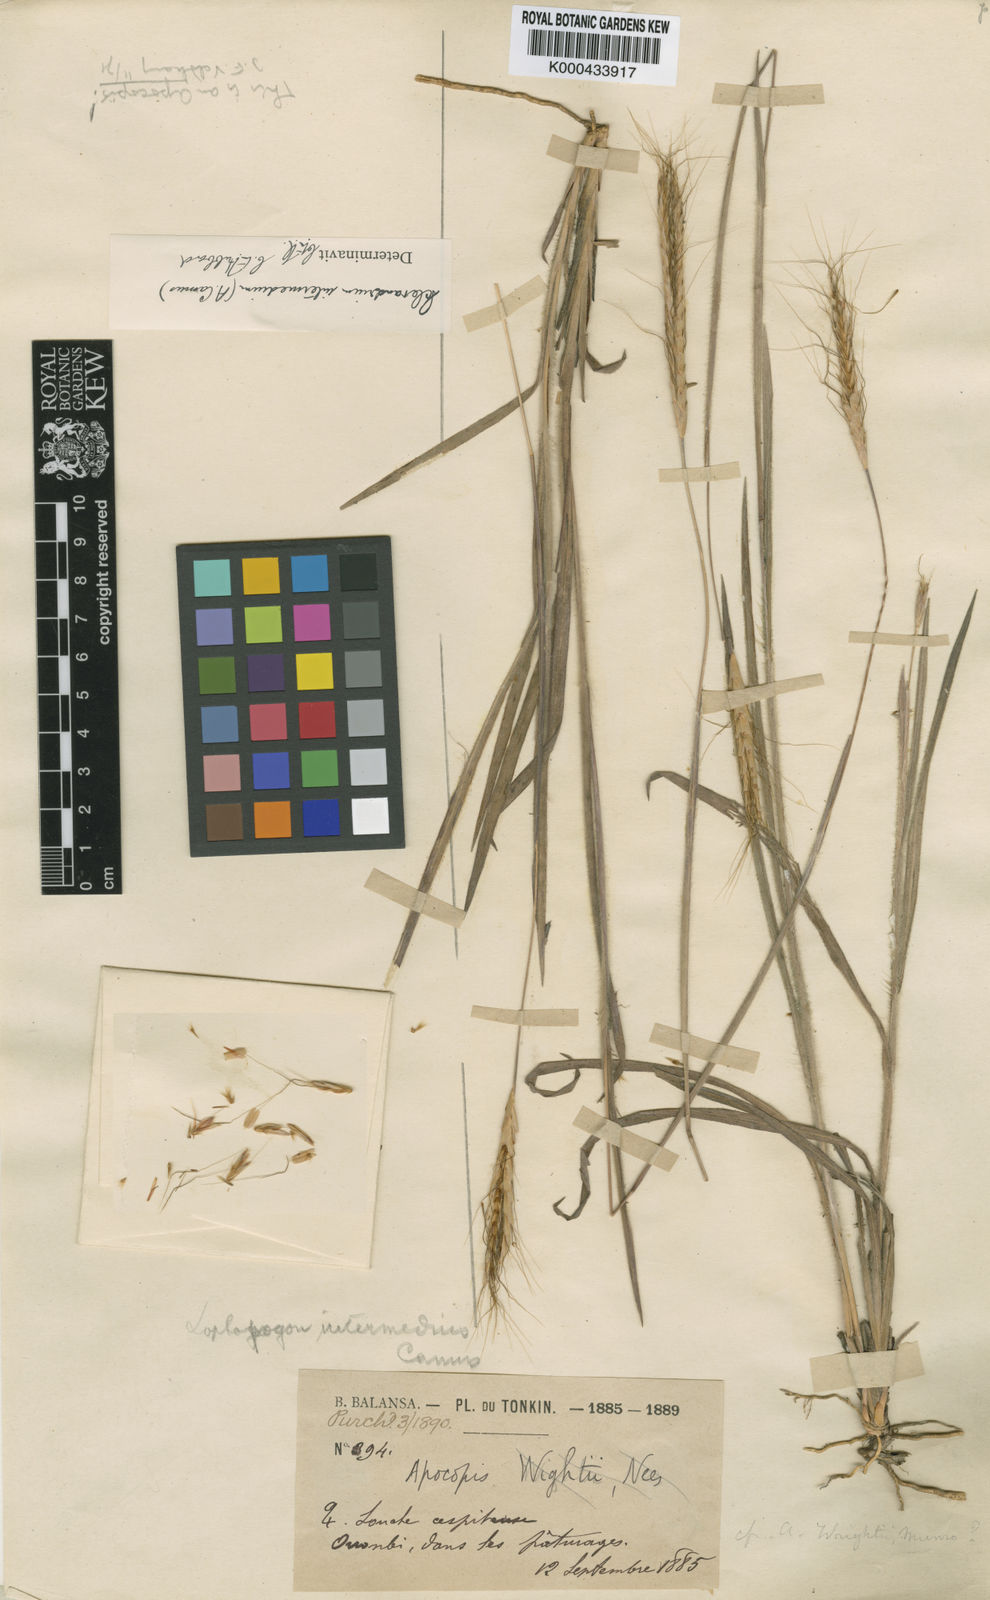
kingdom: Plantae
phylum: Tracheophyta
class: Liliopsida
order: Poales
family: Poaceae
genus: Apocopis
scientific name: Apocopis intermedius
